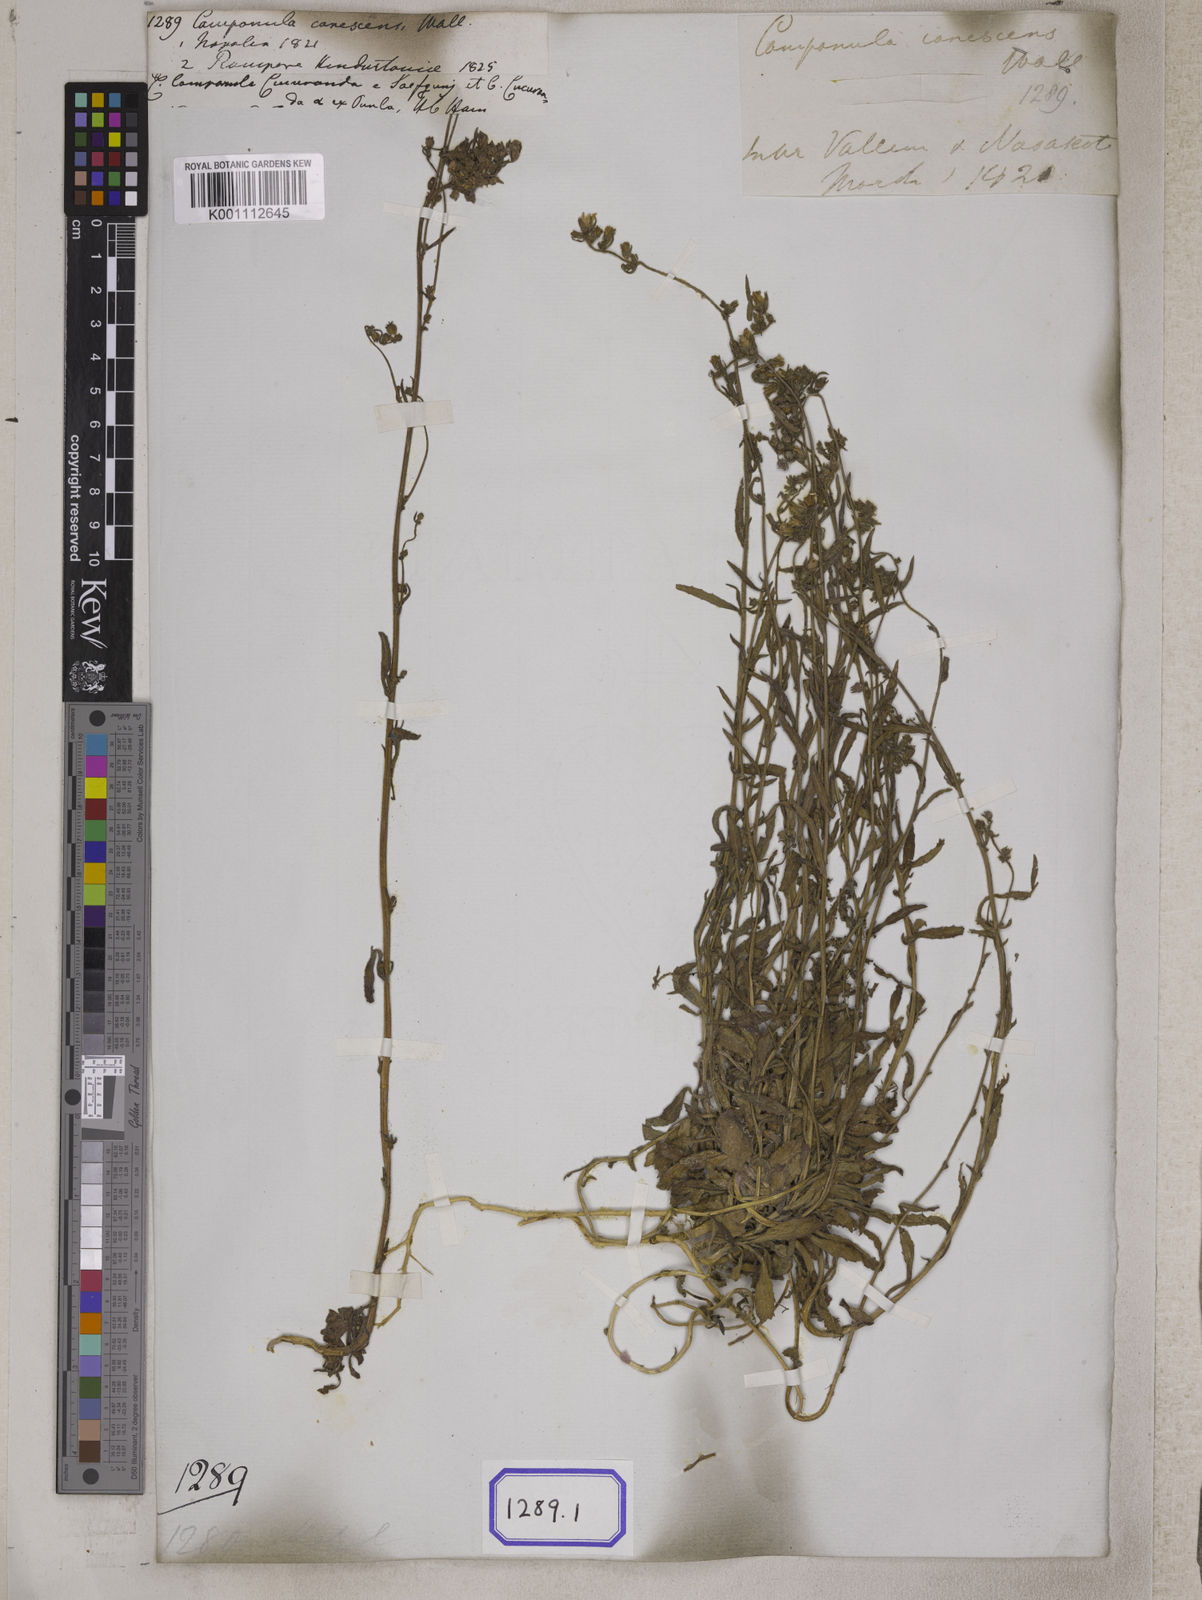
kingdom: Plantae
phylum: Tracheophyta
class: Magnoliopsida
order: Asterales
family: Campanulaceae
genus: Campanula
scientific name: Campanula
